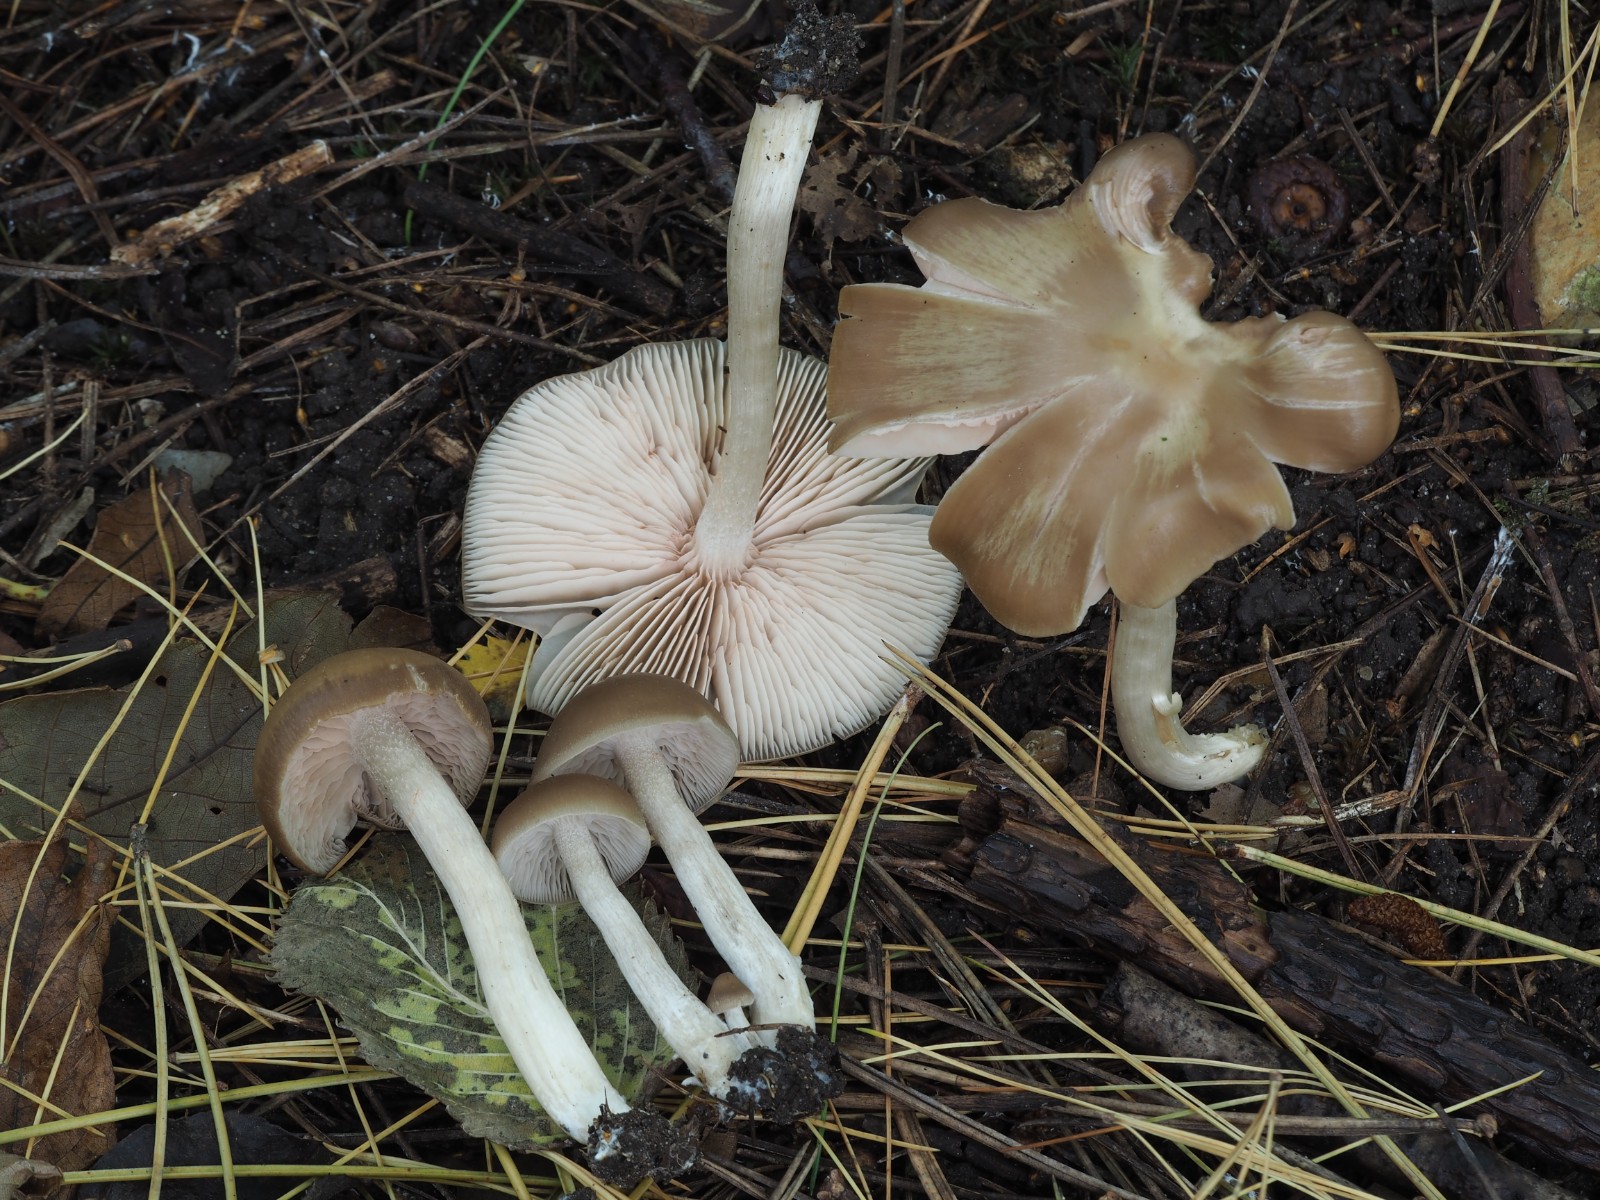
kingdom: Fungi
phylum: Basidiomycota
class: Agaricomycetes
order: Agaricales
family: Entolomataceae
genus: Entoloma
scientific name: Entoloma sericatum
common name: rank rødblad
